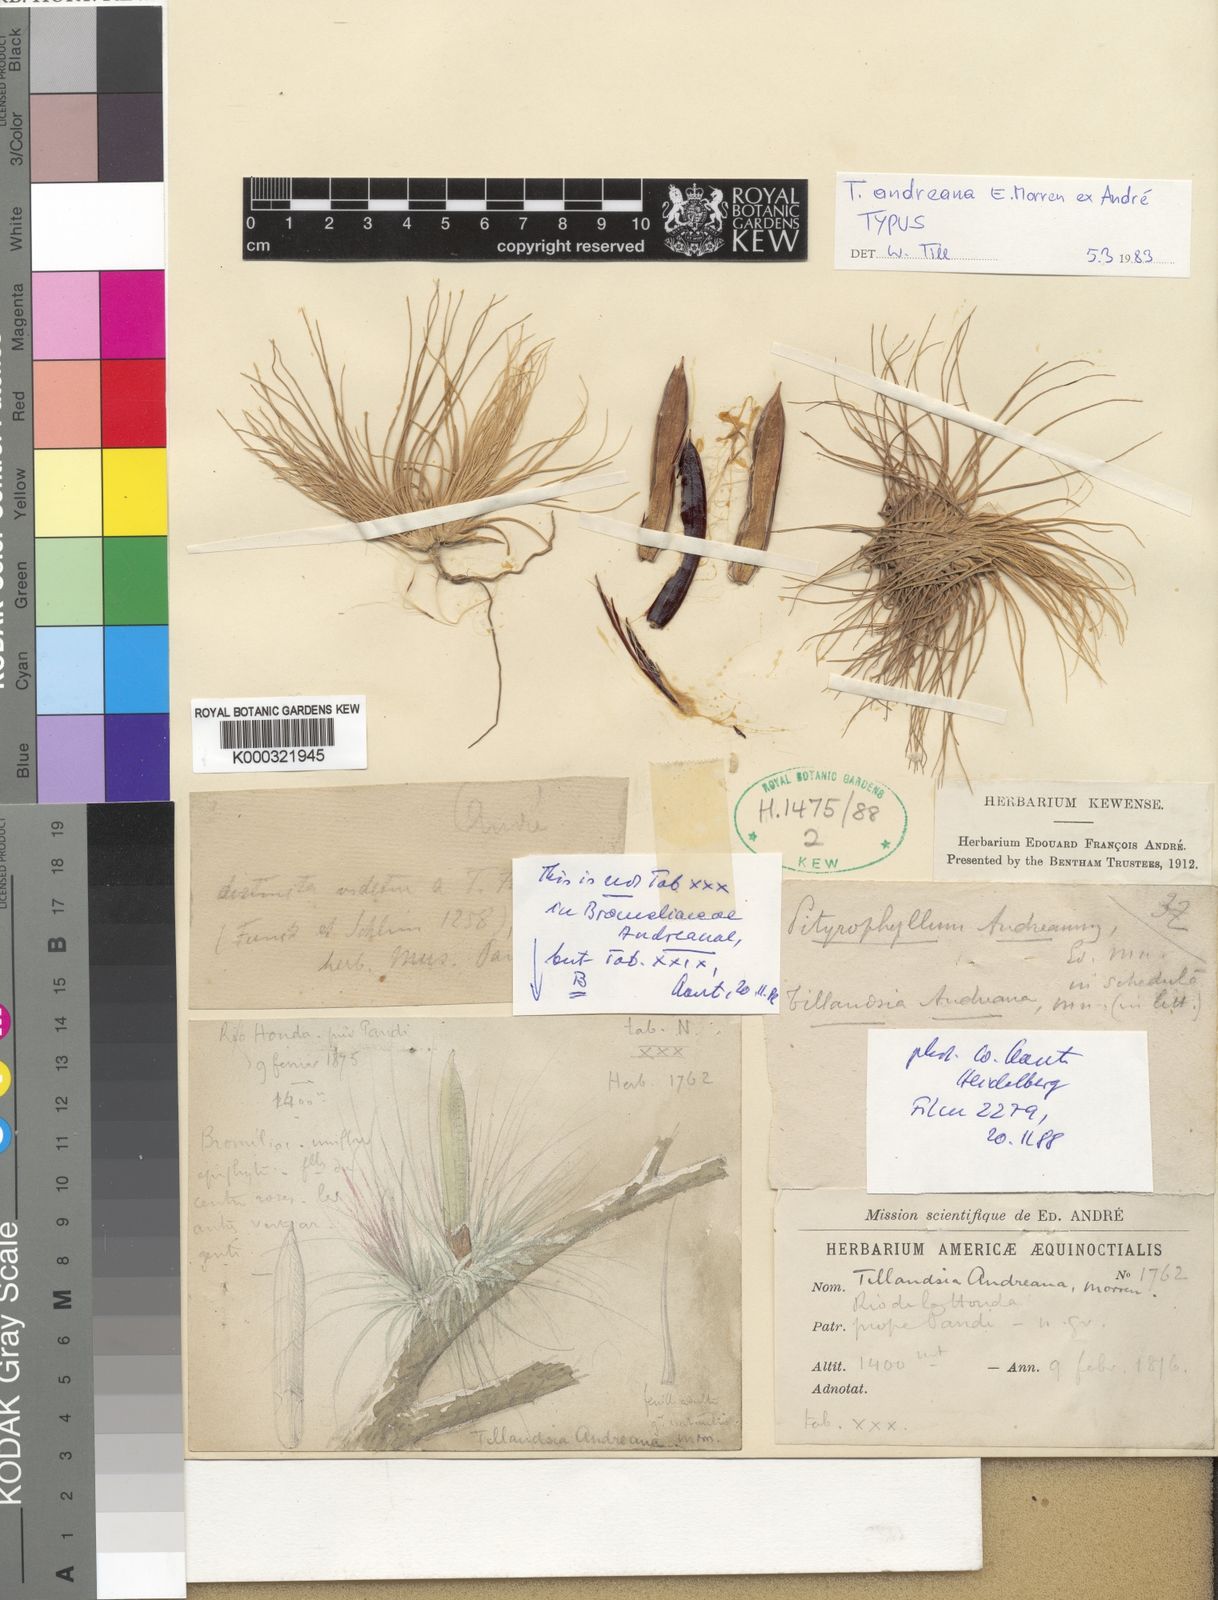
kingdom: Plantae
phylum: Tracheophyta
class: Liliopsida
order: Poales
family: Bromeliaceae
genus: Tillandsia
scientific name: Tillandsia
